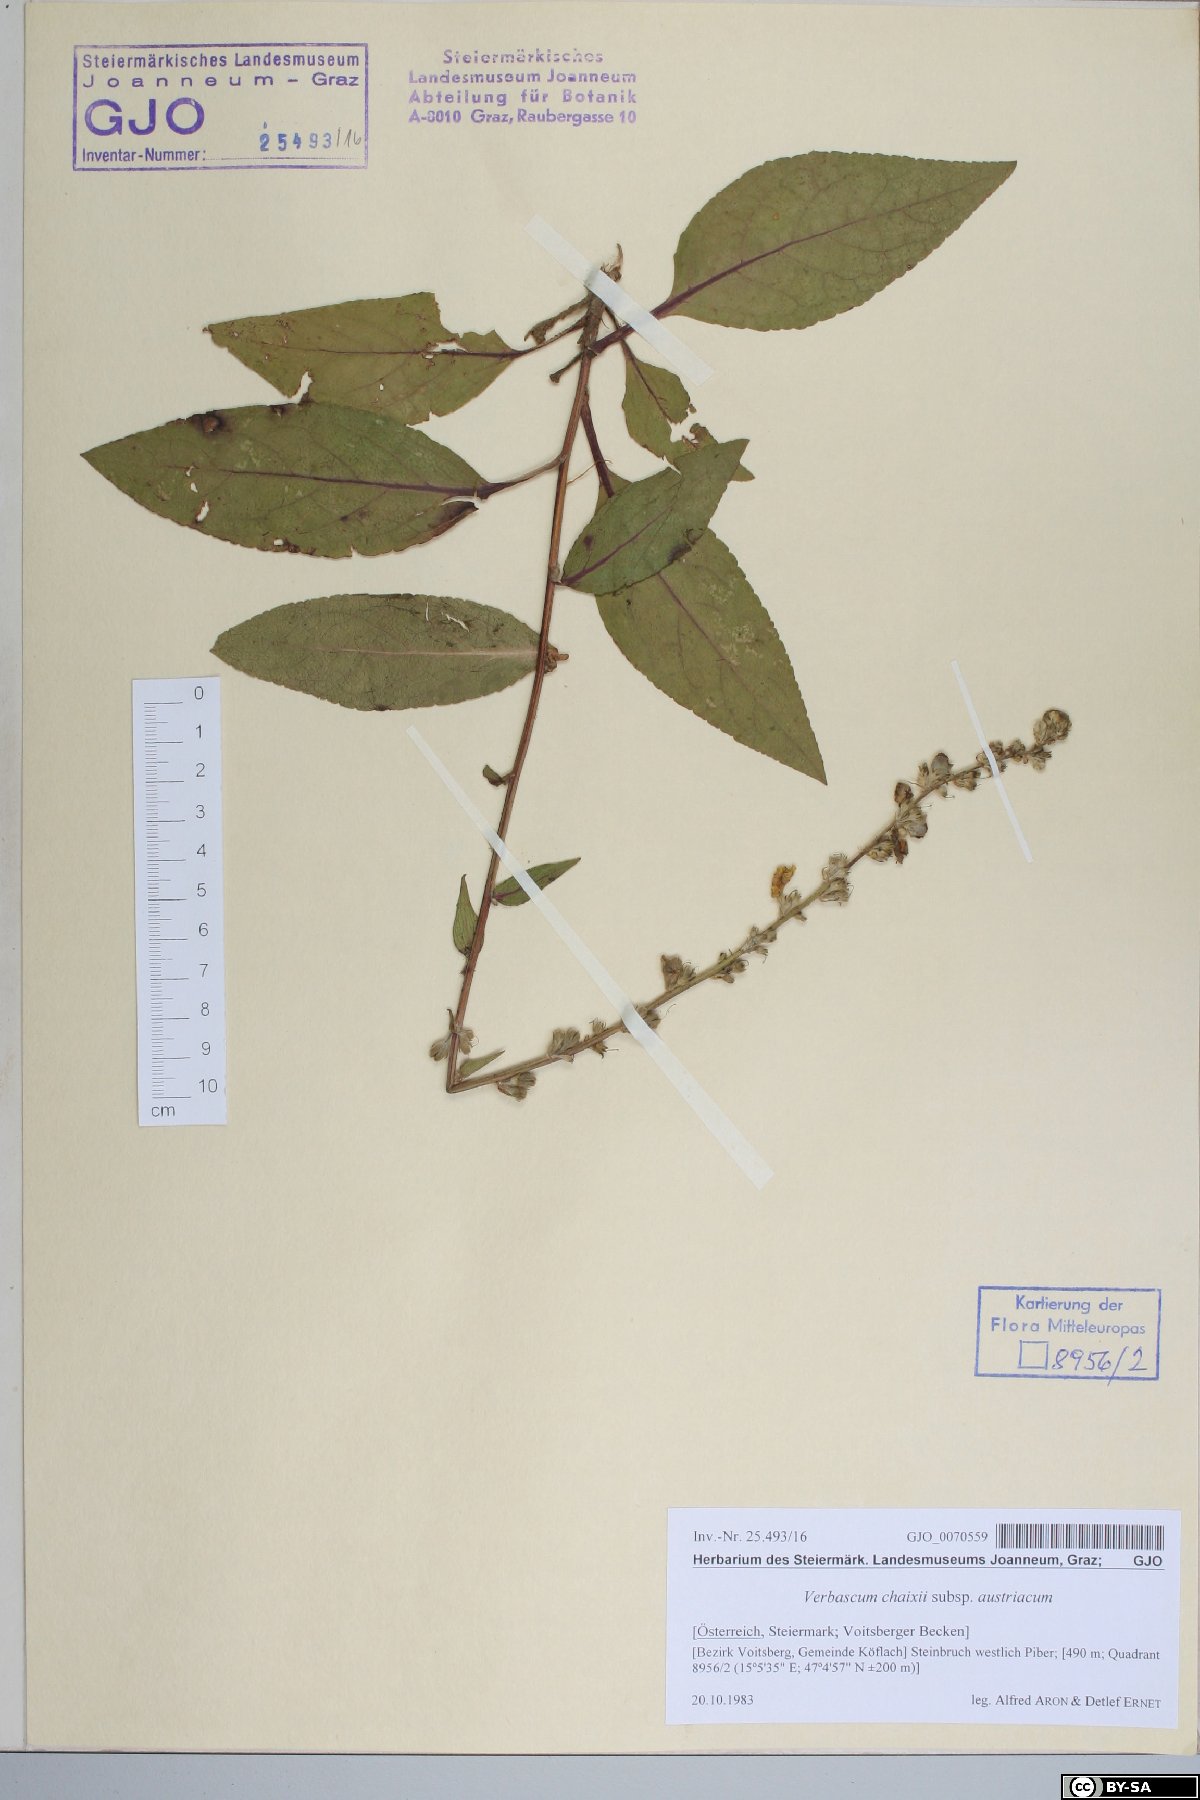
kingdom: Plantae
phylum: Tracheophyta
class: Magnoliopsida
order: Lamiales
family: Scrophulariaceae
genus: Verbascum
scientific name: Verbascum chaixii
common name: Nettle-leaved mullein
